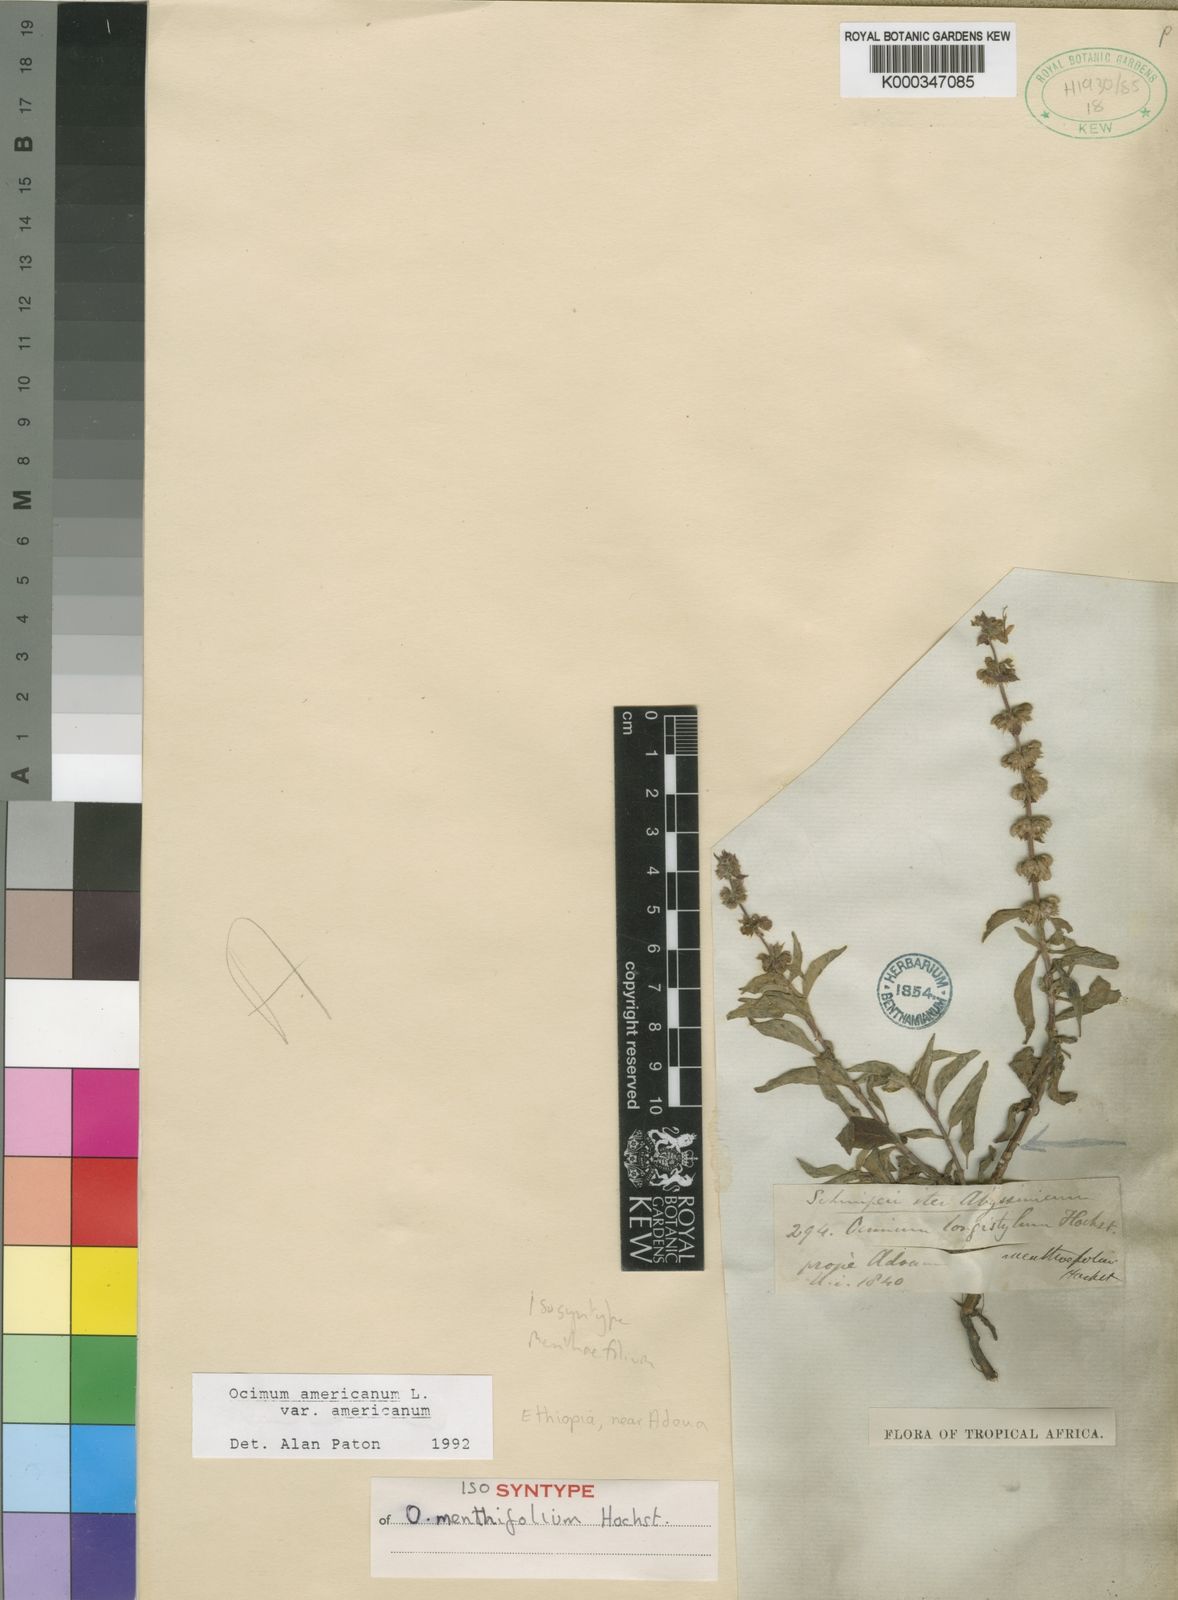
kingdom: Plantae
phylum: Tracheophyta
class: Magnoliopsida
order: Lamiales
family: Lamiaceae
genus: Ocimum
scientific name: Ocimum americanum
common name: American basil
